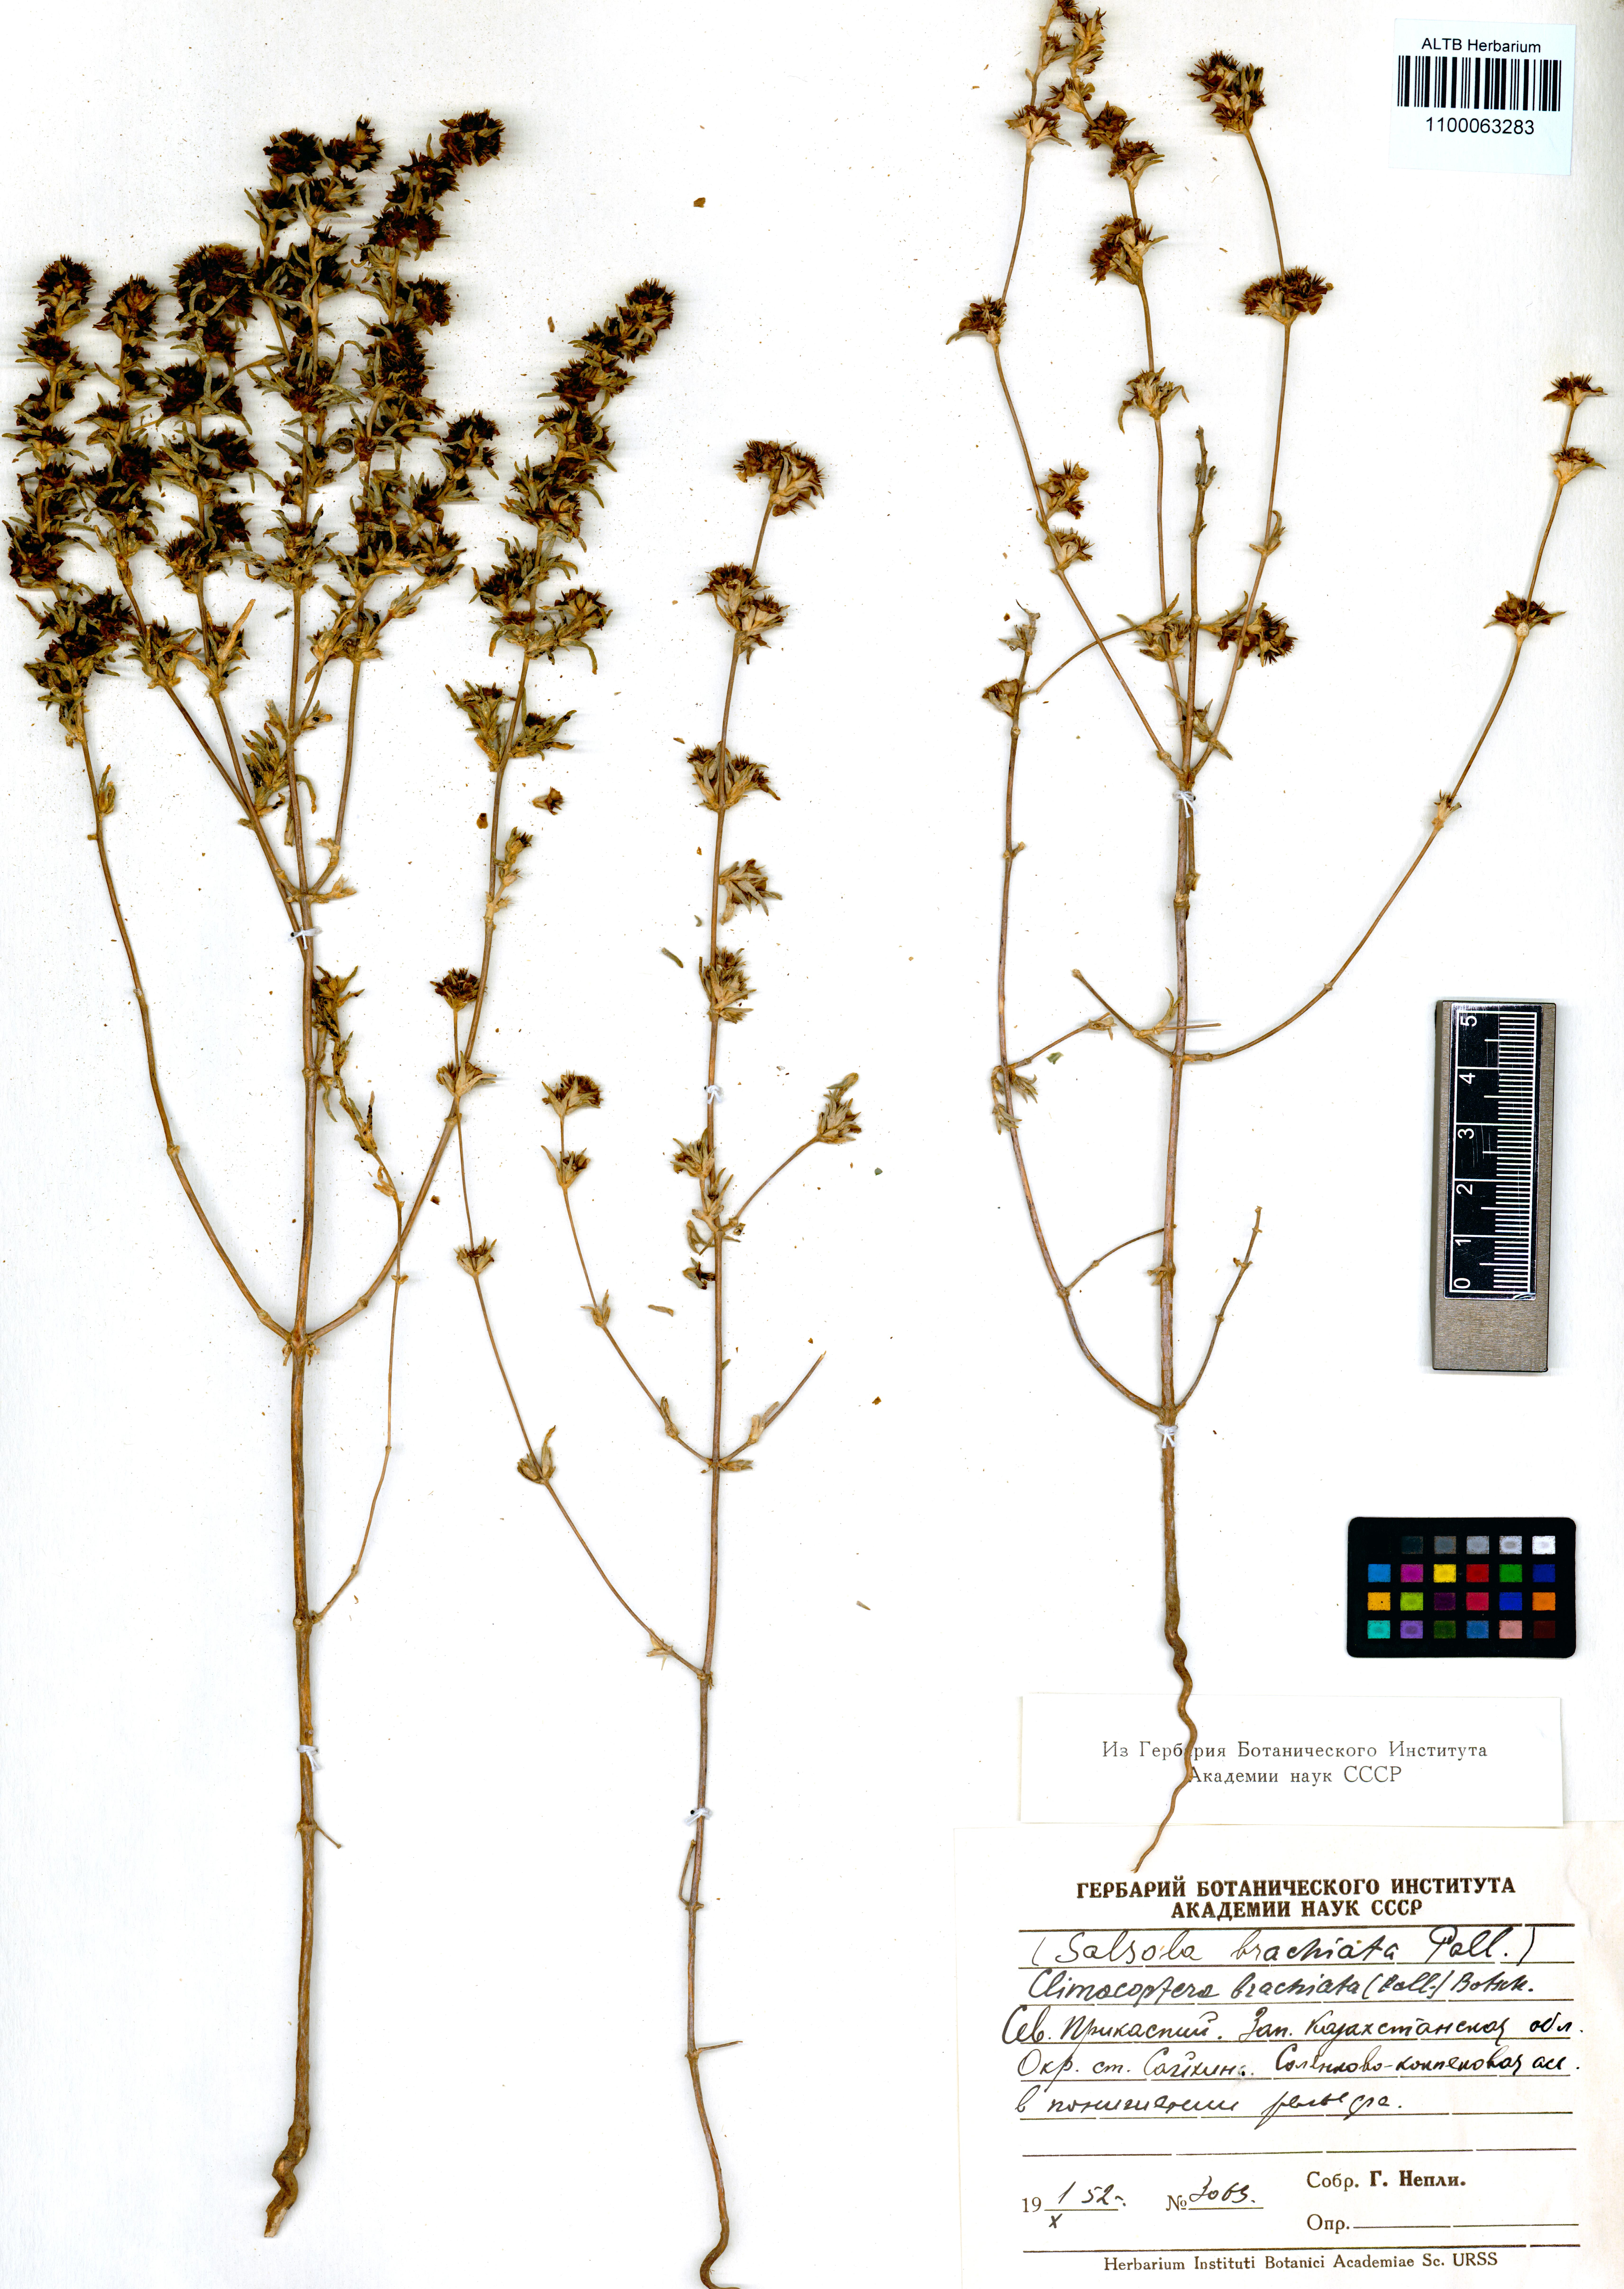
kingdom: Plantae
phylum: Tracheophyta
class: Magnoliopsida
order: Caryophyllales
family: Amaranthaceae
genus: Pyankovia
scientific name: Pyankovia brachiata
